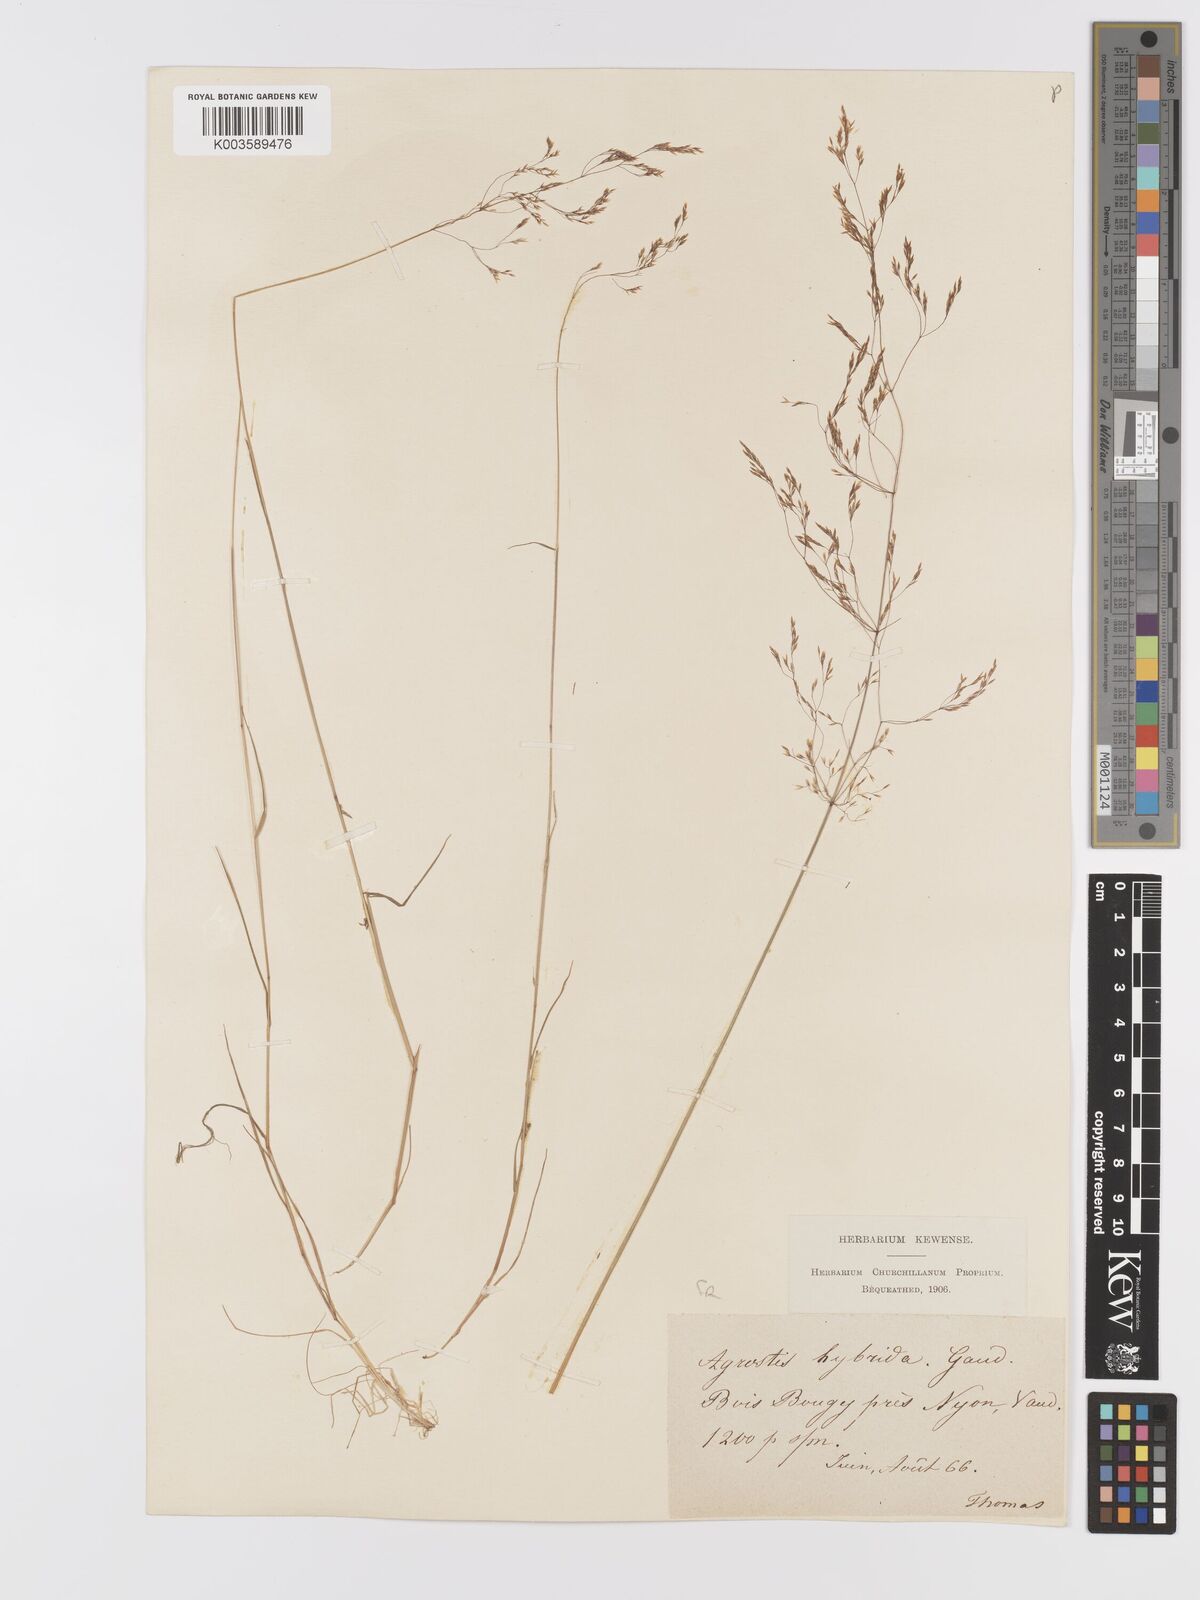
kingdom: Plantae
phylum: Tracheophyta
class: Liliopsida
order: Poales
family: Poaceae
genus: Agrostis
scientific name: Agrostis canina
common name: Velvet bent
